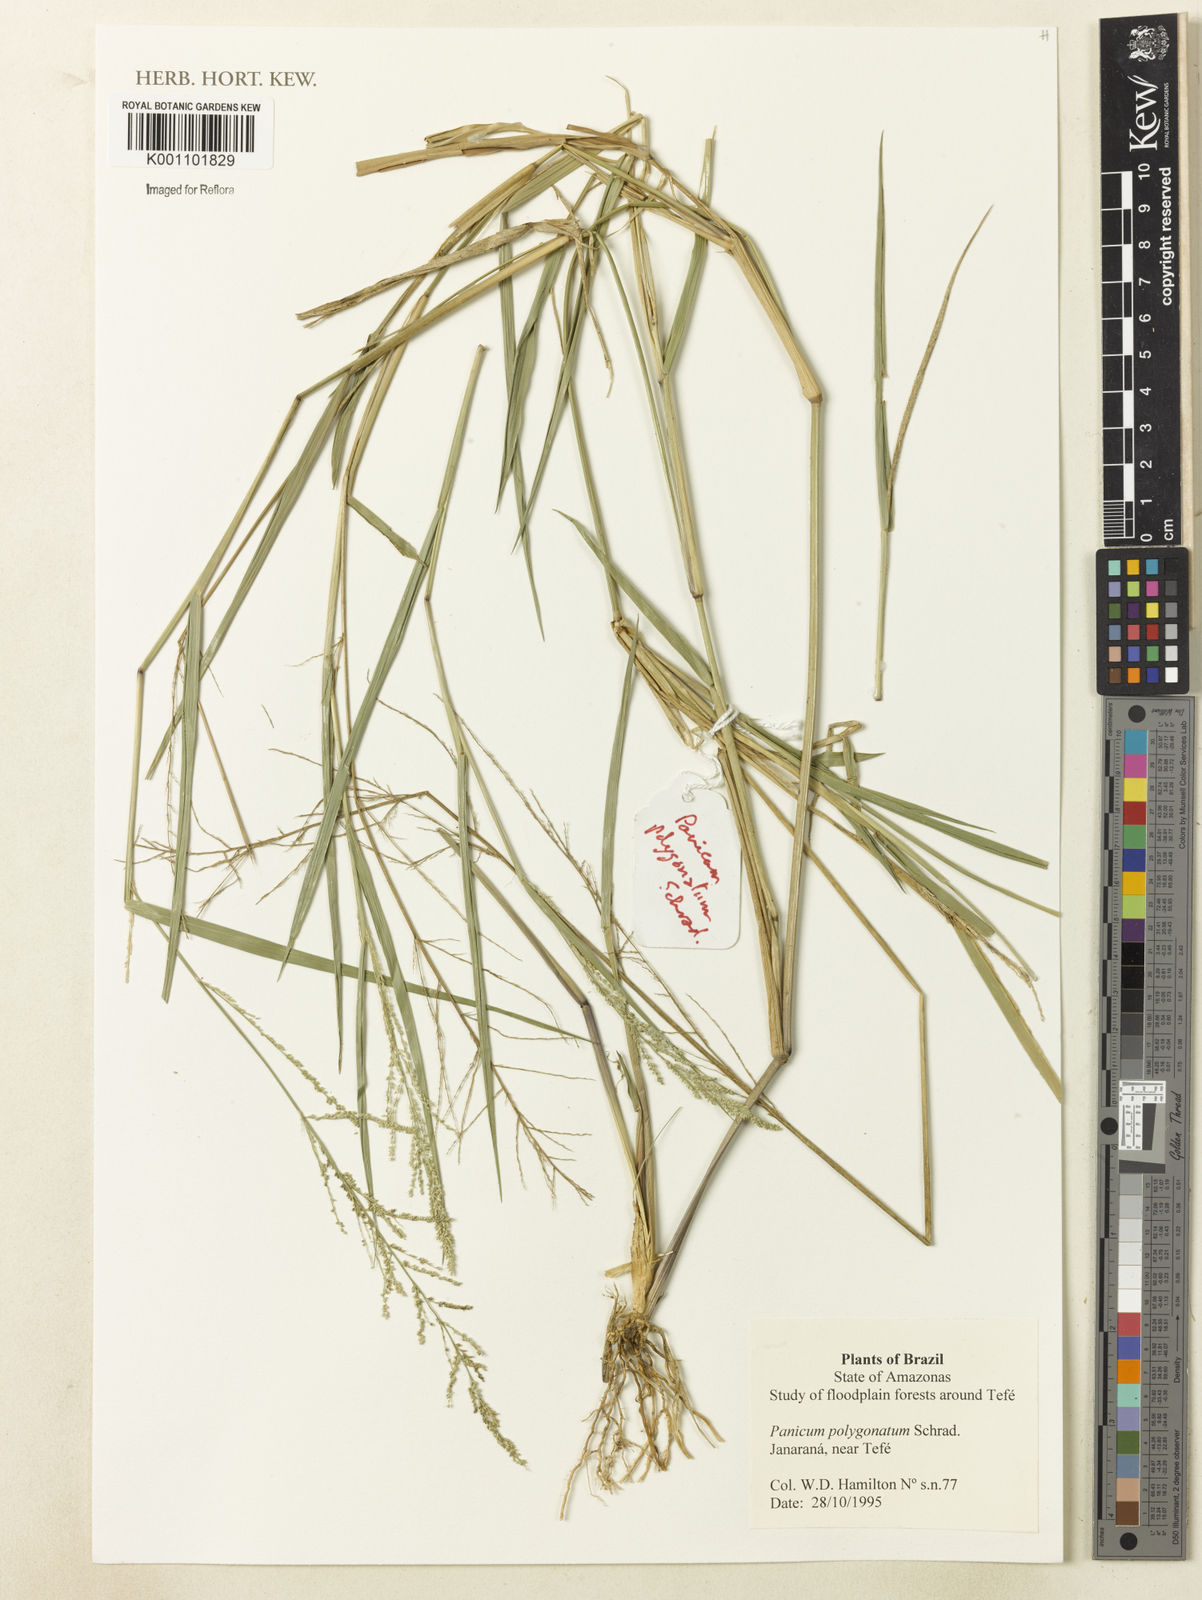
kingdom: Plantae
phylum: Tracheophyta
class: Liliopsida
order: Poales
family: Poaceae
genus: Rugoloa
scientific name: Rugoloa polygonata
